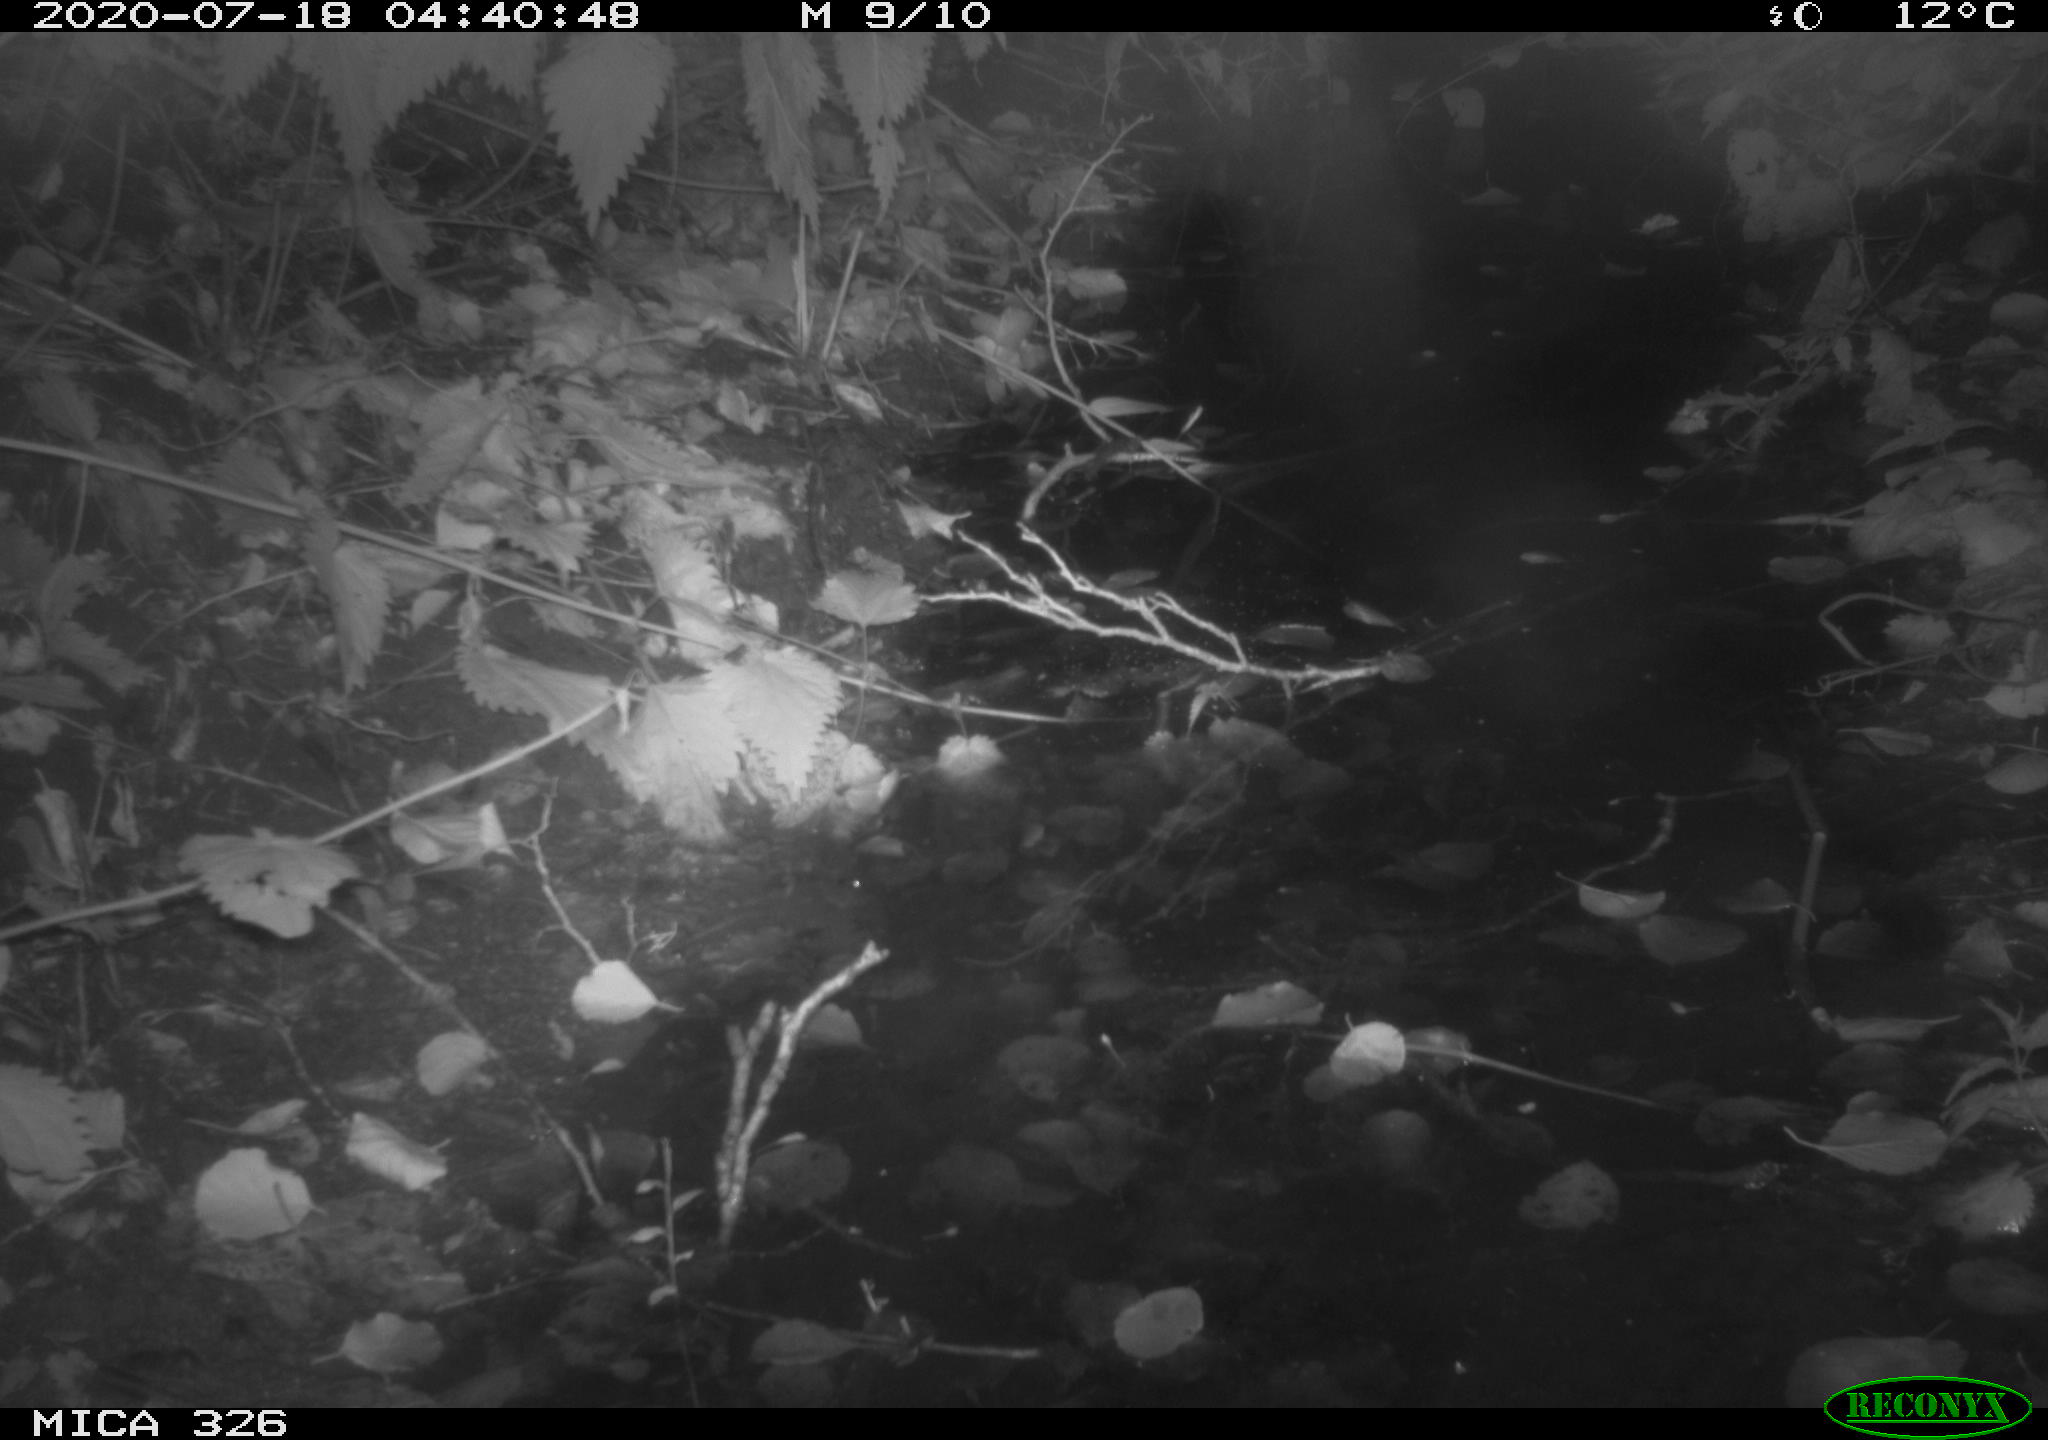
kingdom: Animalia
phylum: Chordata
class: Mammalia
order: Rodentia
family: Muridae
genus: Rattus
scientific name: Rattus norvegicus
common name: Brown rat
